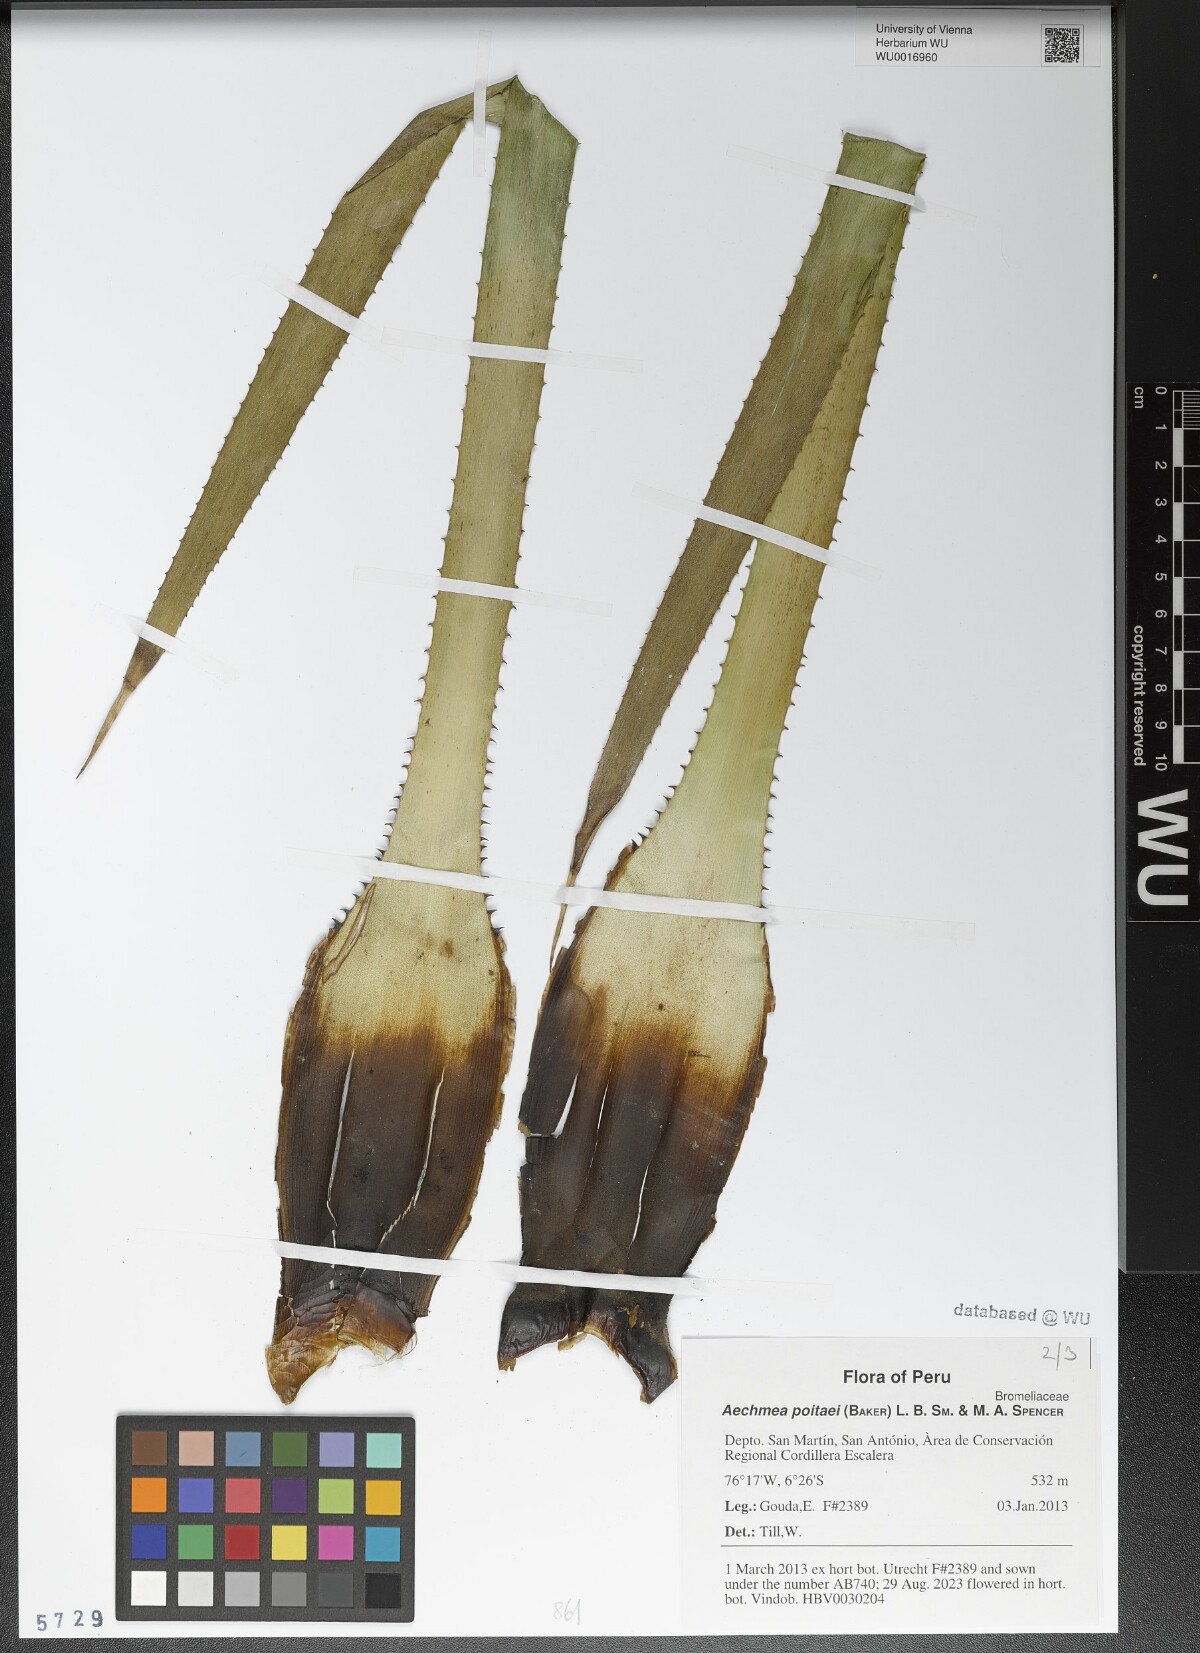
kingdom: Plantae
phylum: Tracheophyta
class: Liliopsida
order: Poales
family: Bromeliaceae
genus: Aechmea
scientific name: Aechmea poitaei
